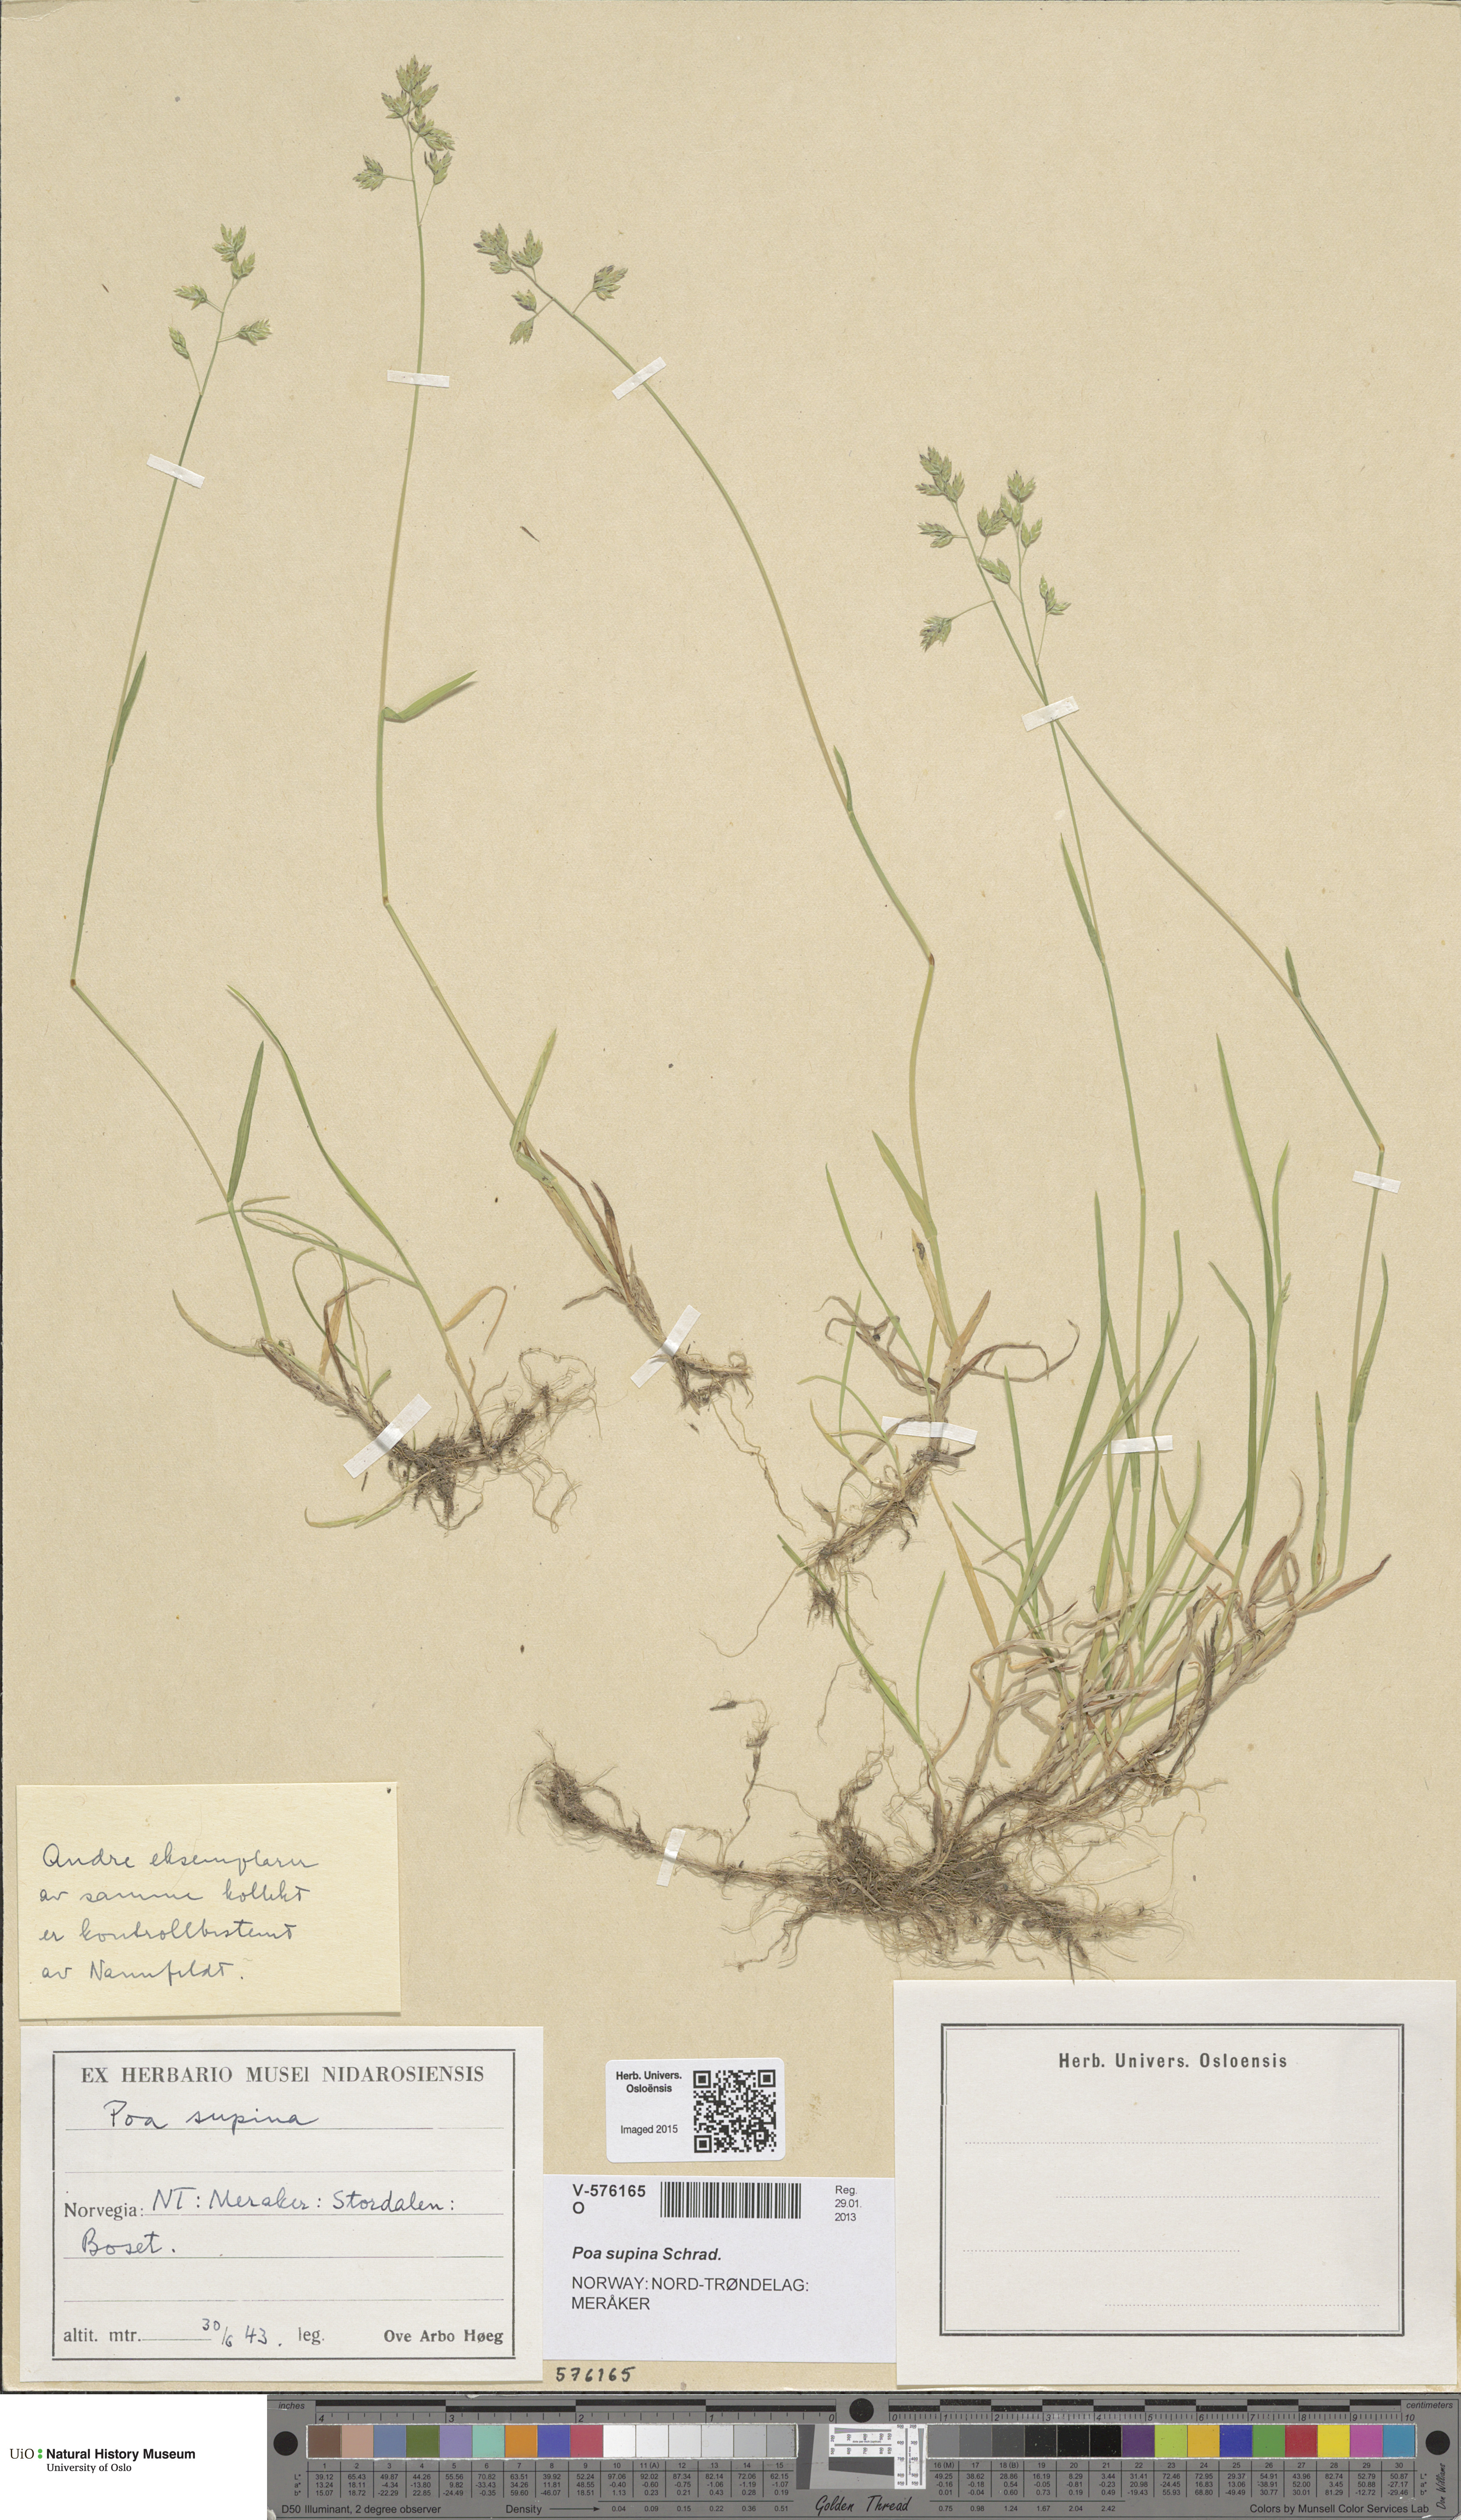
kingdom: Plantae
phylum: Tracheophyta
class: Liliopsida
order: Poales
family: Poaceae
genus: Poa
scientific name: Poa supina
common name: Supina bluegrass
